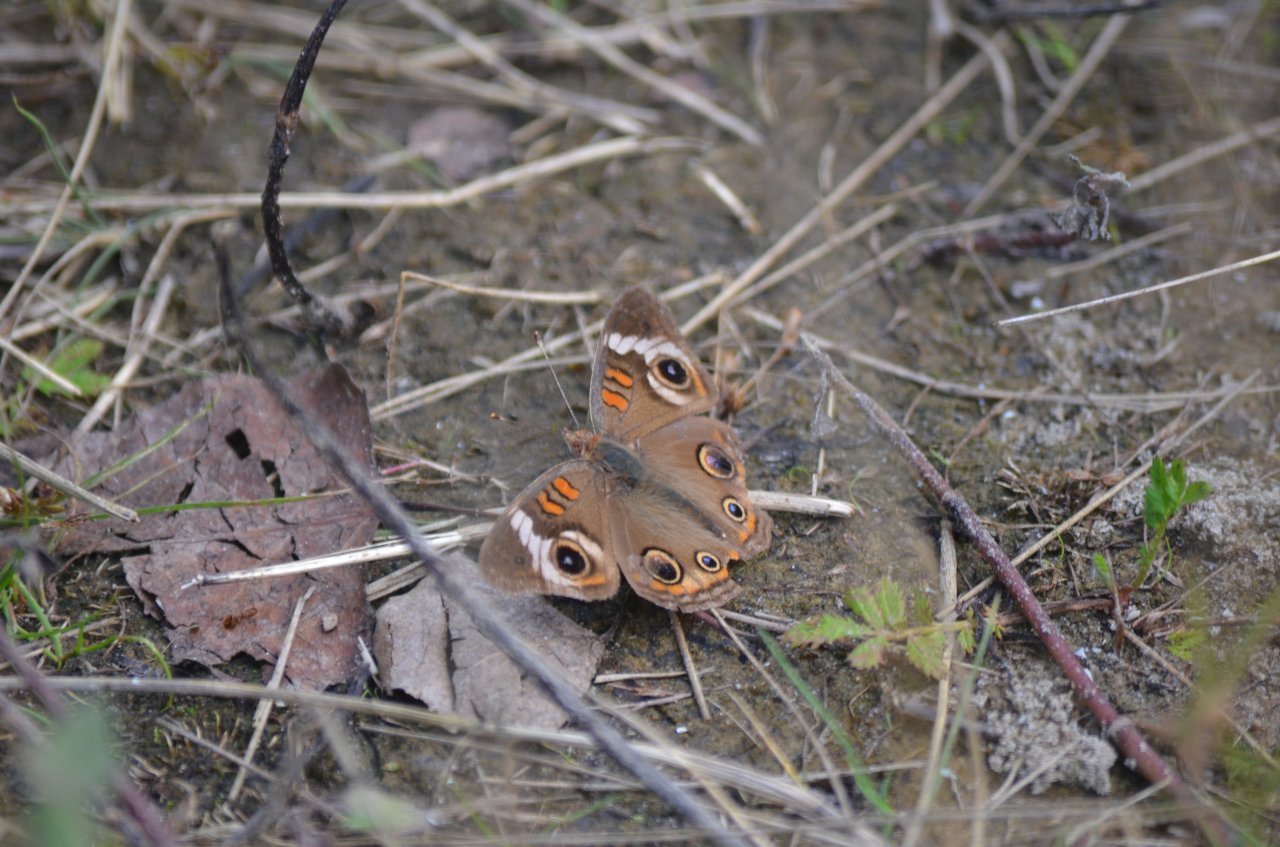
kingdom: Animalia
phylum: Arthropoda
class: Insecta
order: Lepidoptera
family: Nymphalidae
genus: Junonia
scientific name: Junonia coenia
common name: Common Buckeye
